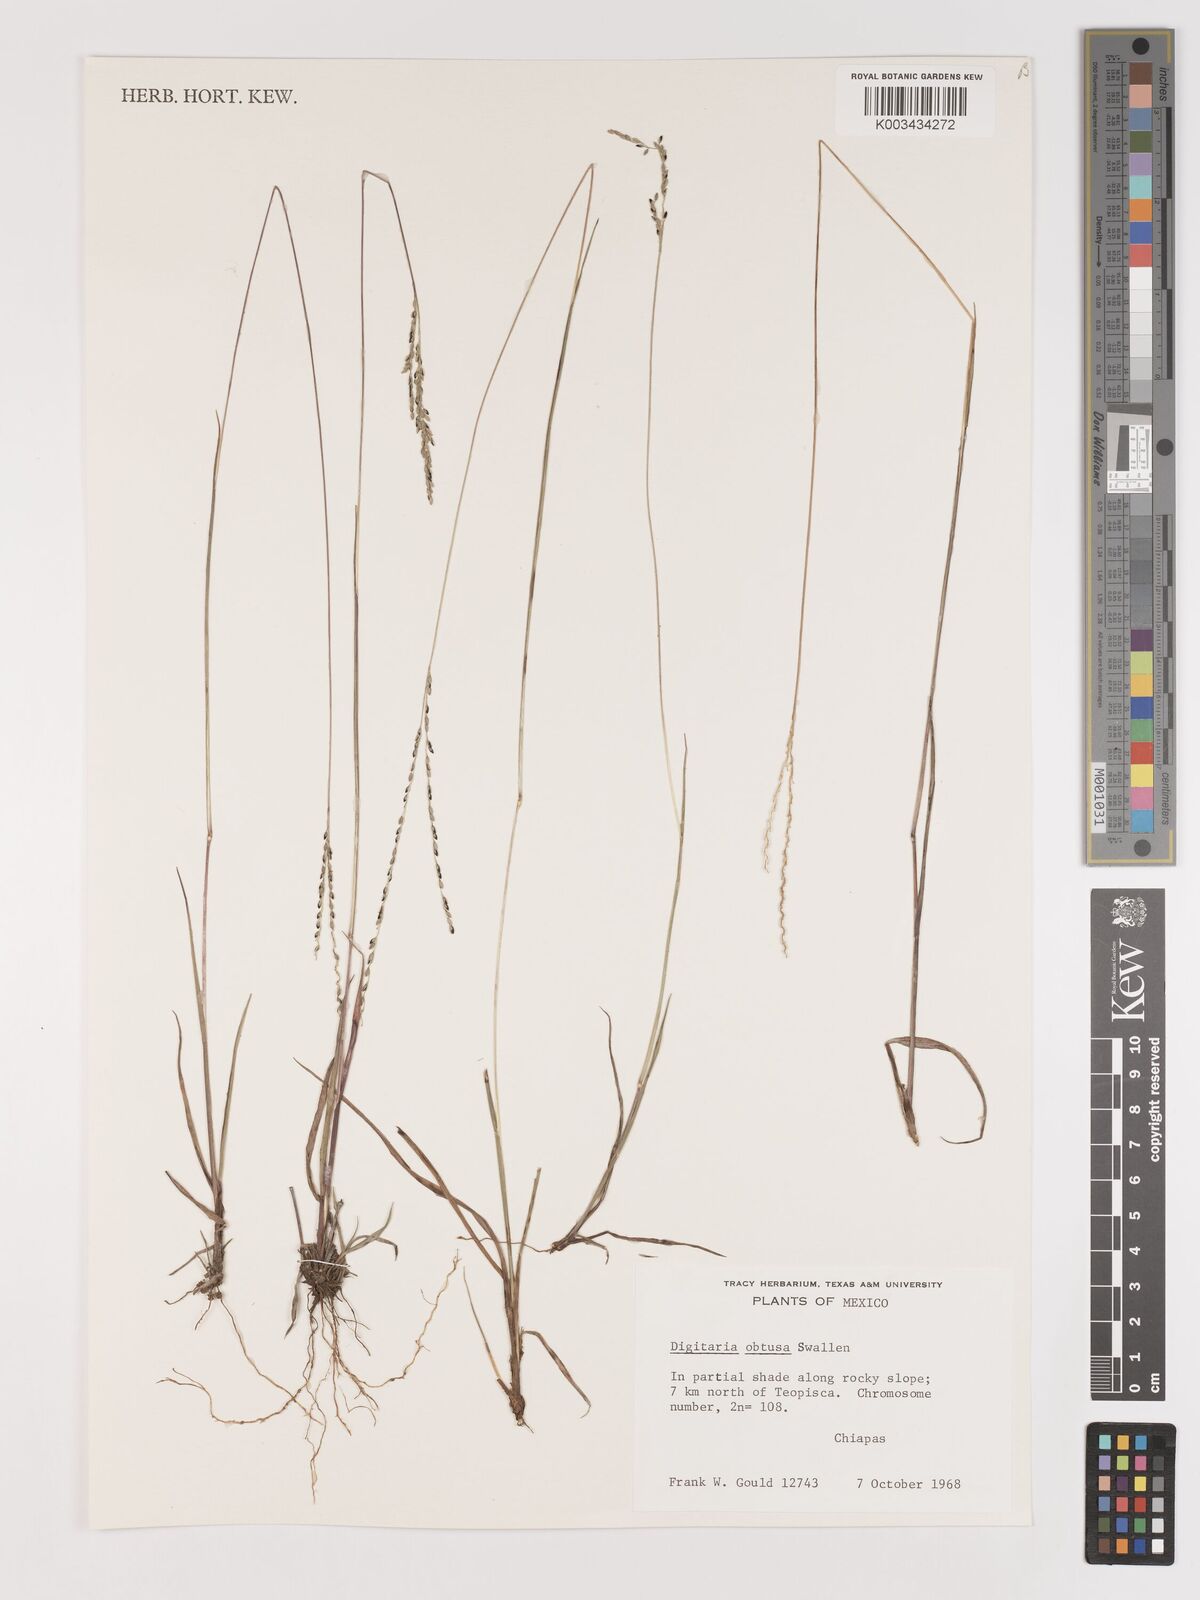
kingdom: Plantae
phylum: Tracheophyta
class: Liliopsida
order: Poales
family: Poaceae
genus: Digitaria
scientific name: Digitaria compacta
